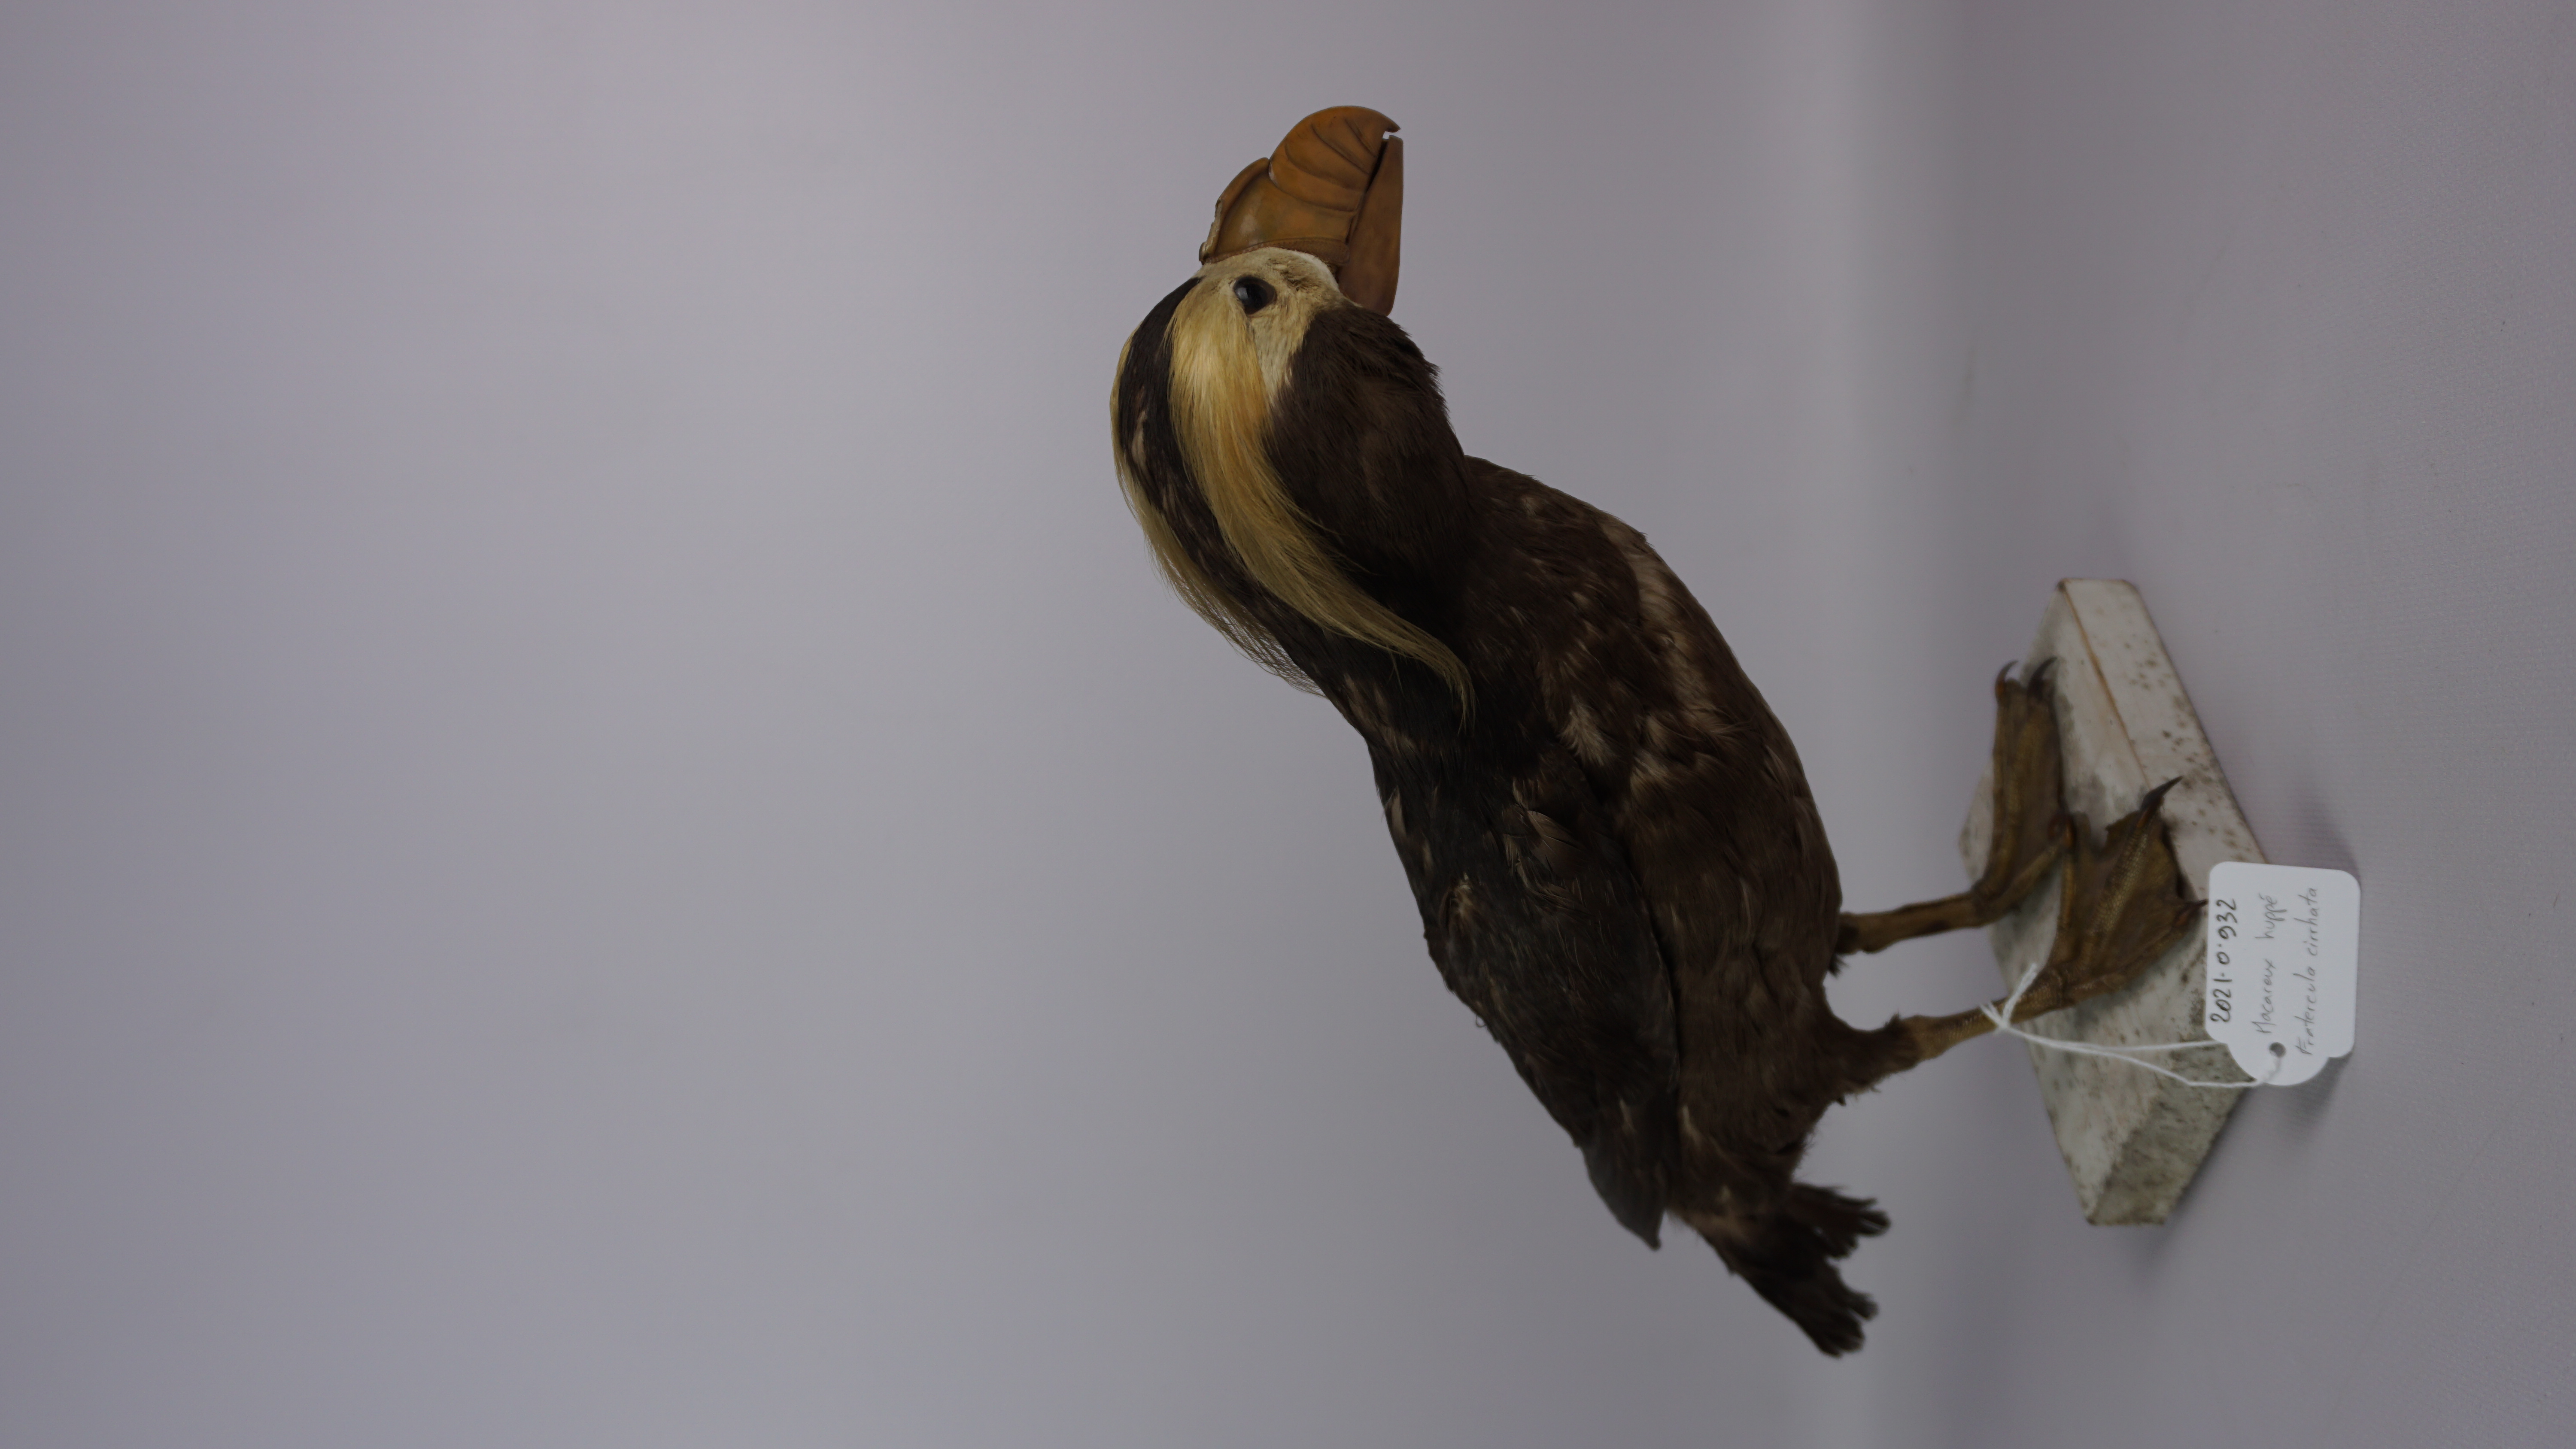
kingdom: Animalia
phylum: Chordata
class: Aves
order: Charadriiformes
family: Alcidae
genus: Fratercula
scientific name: Fratercula cirrhata
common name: Tufted puffin
